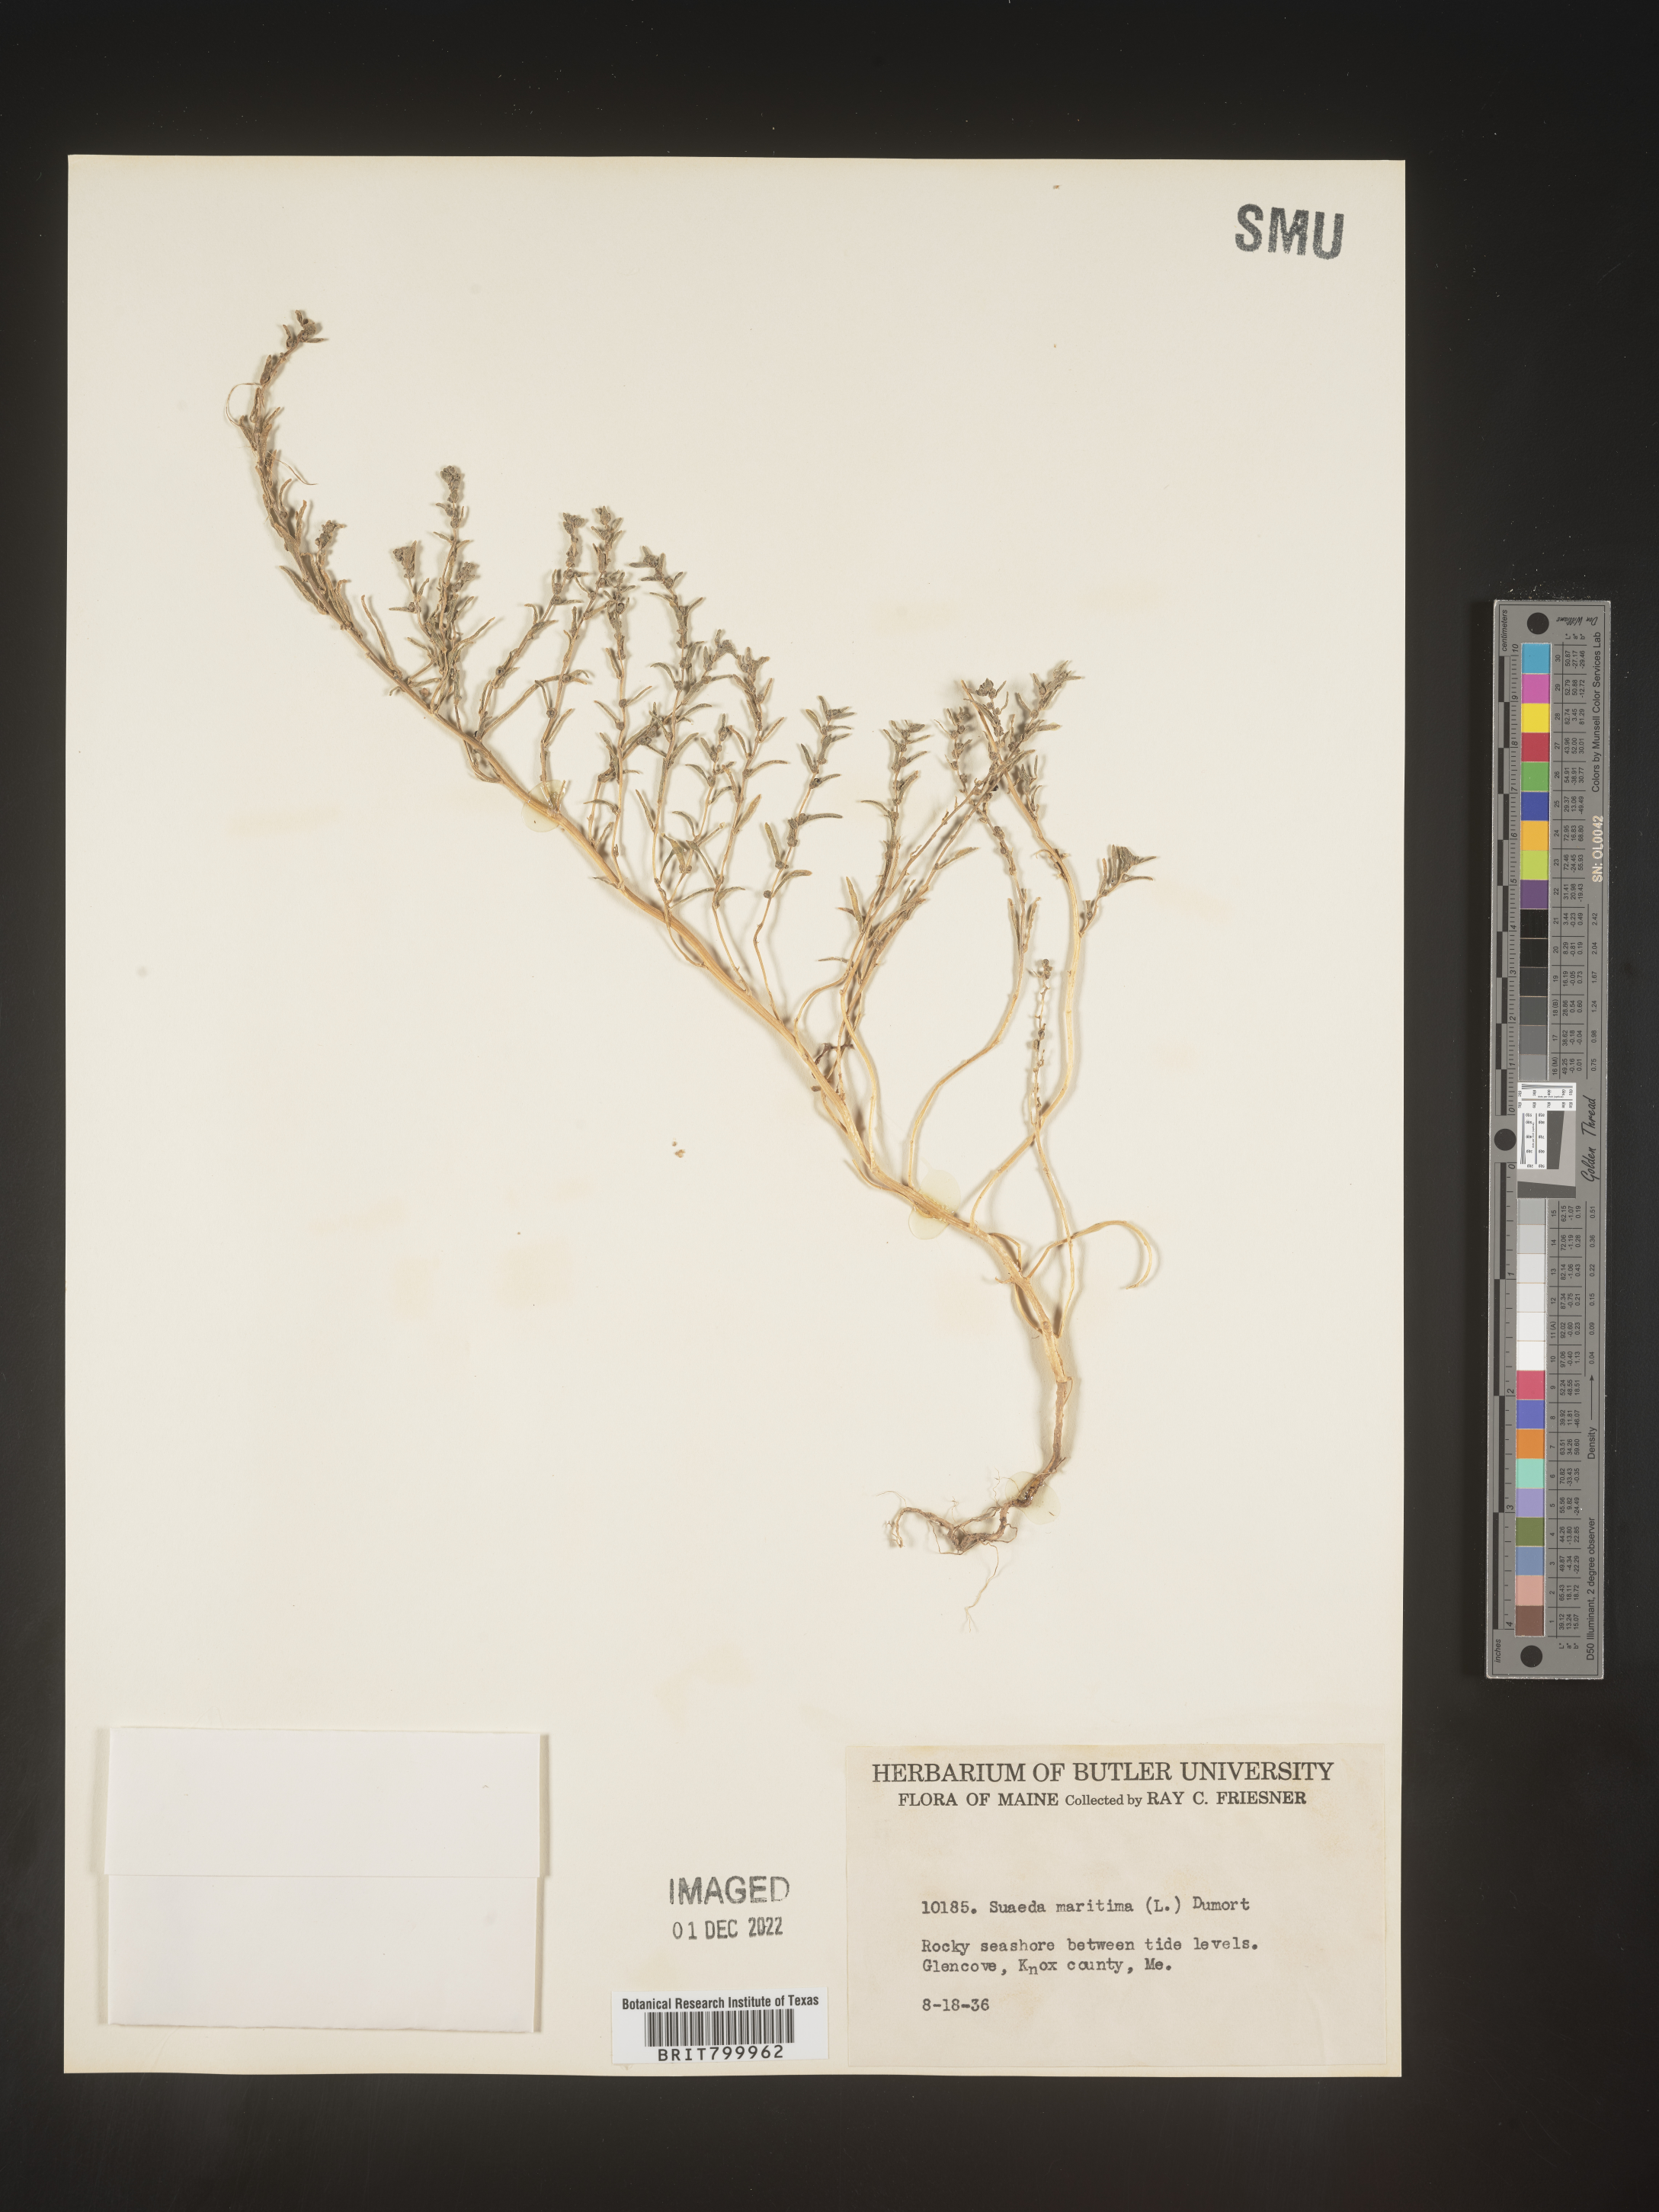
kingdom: Plantae
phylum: Tracheophyta
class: Magnoliopsida
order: Caryophyllales
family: Amaranthaceae
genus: Suaeda
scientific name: Suaeda maritima
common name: Annual sea-blite
